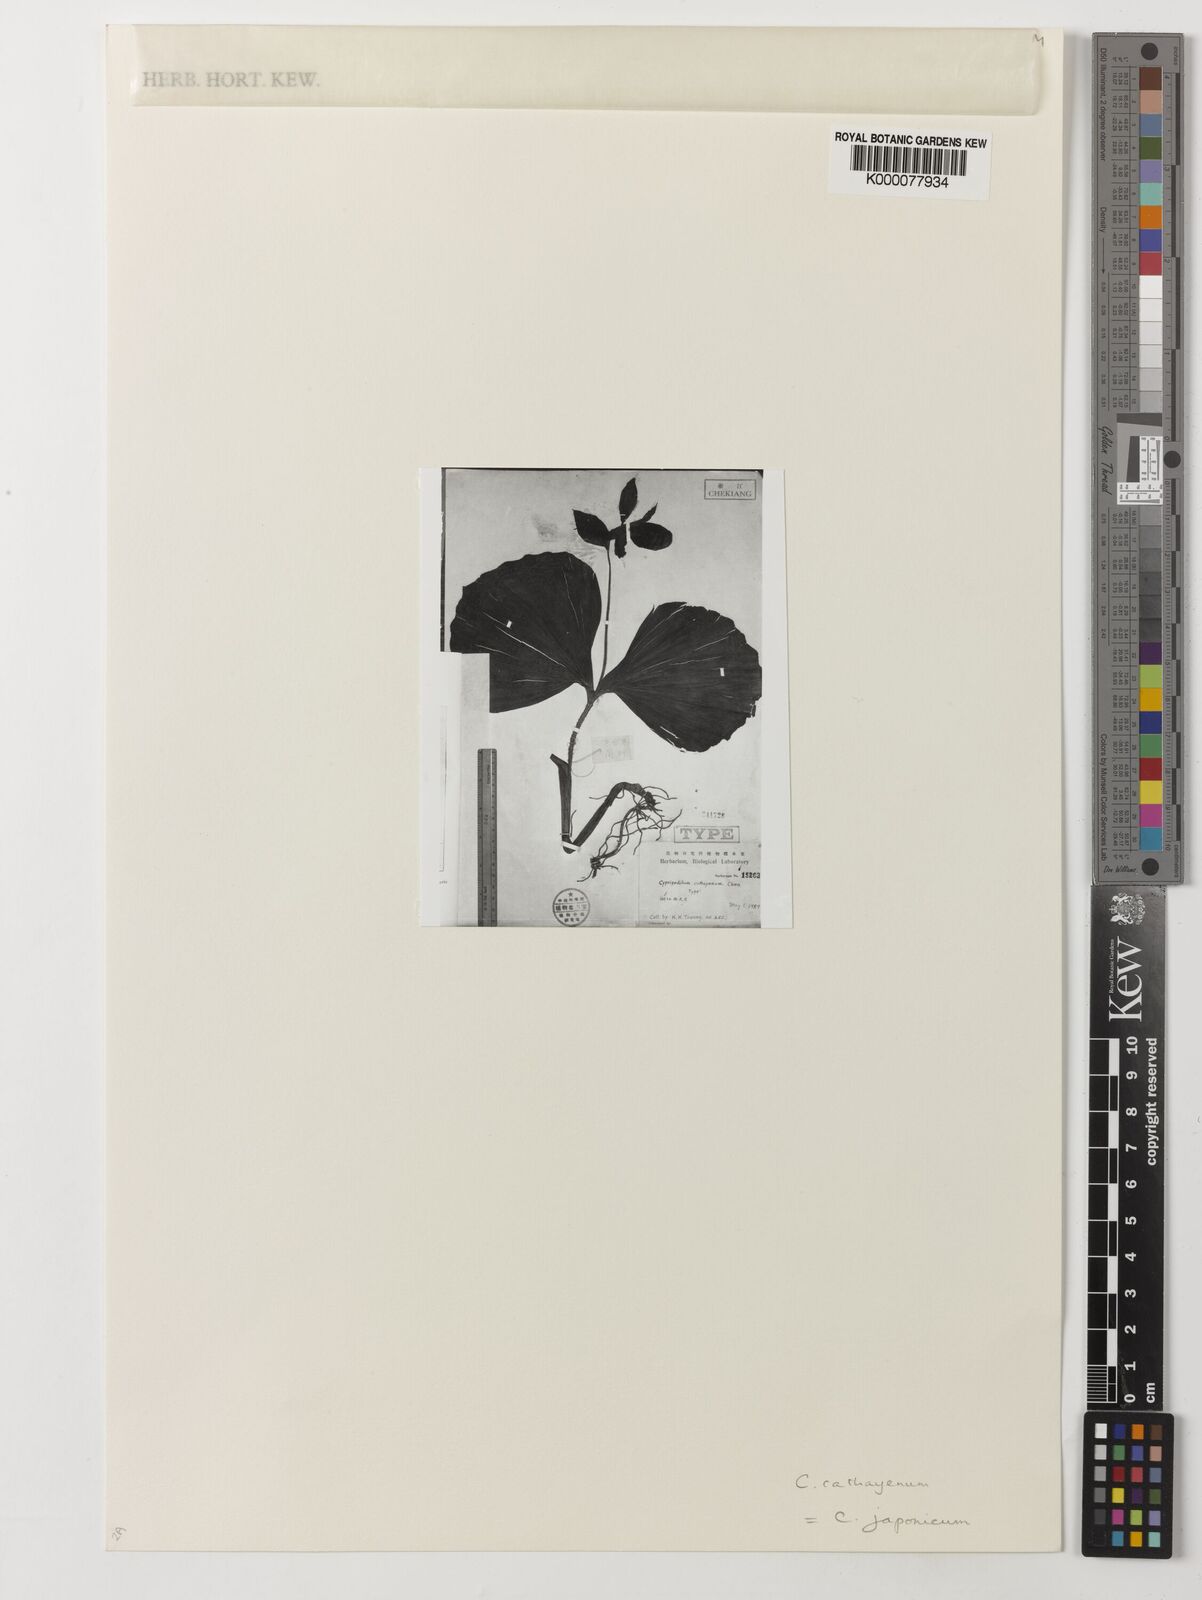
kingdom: Plantae
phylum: Tracheophyta
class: Liliopsida
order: Asparagales
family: Orchidaceae
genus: Cypripedium
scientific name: Cypripedium japonicum
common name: Japanese ladyslipper
